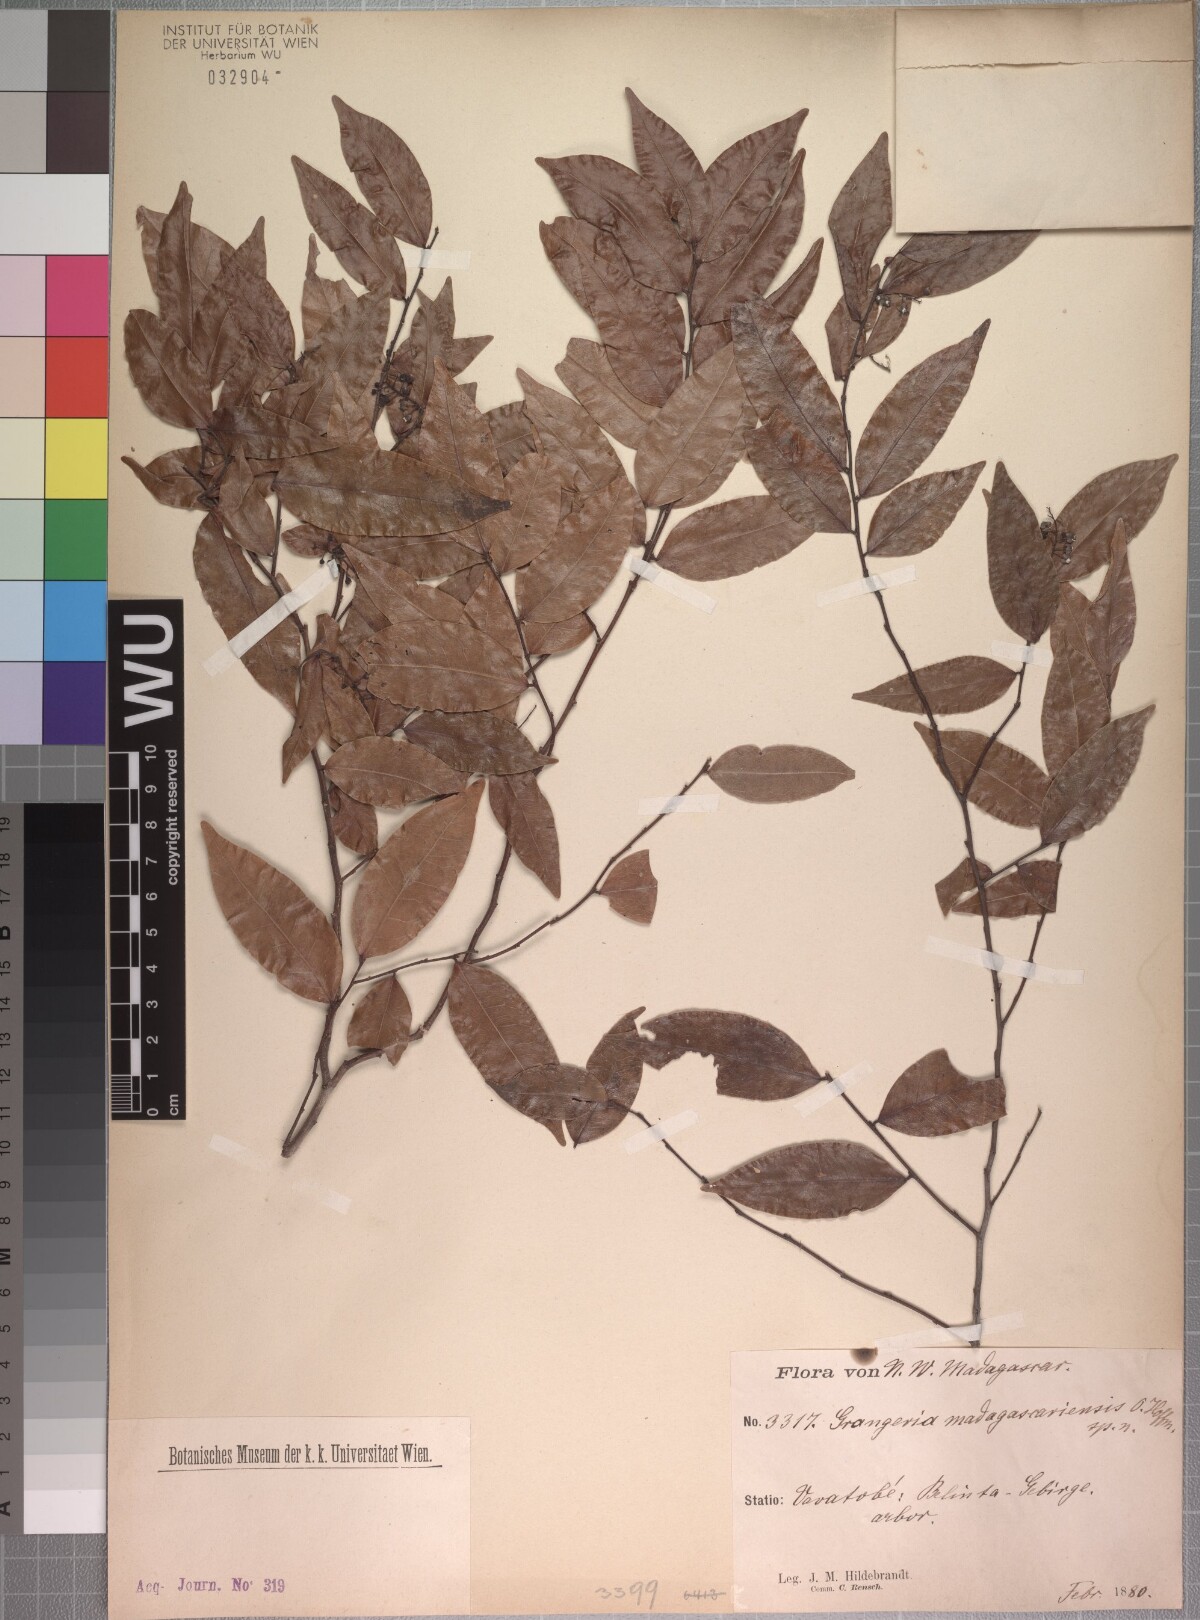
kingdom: Plantae
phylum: Tracheophyta
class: Magnoliopsida
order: Malpighiales
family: Chrysobalanaceae
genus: Grangeria
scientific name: Grangeria porosa
